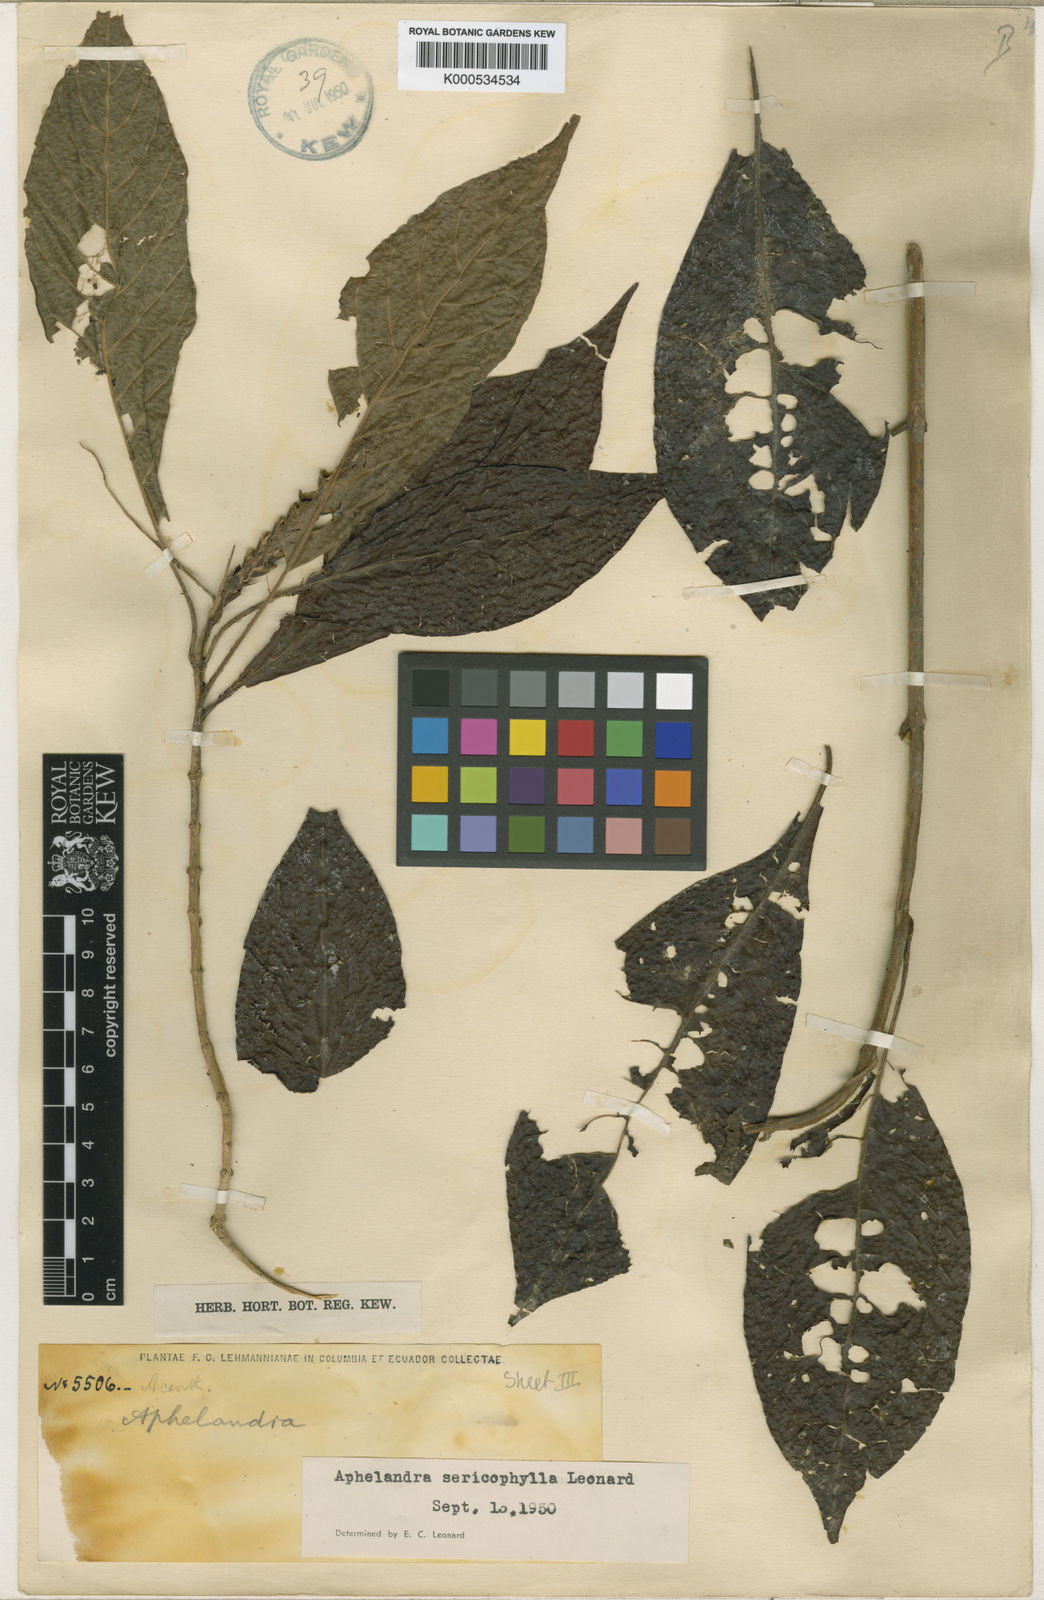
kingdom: Plantae
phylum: Tracheophyta
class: Magnoliopsida
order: Lamiales
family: Acanthaceae
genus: Aphelandra
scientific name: Aphelandra glabrata
